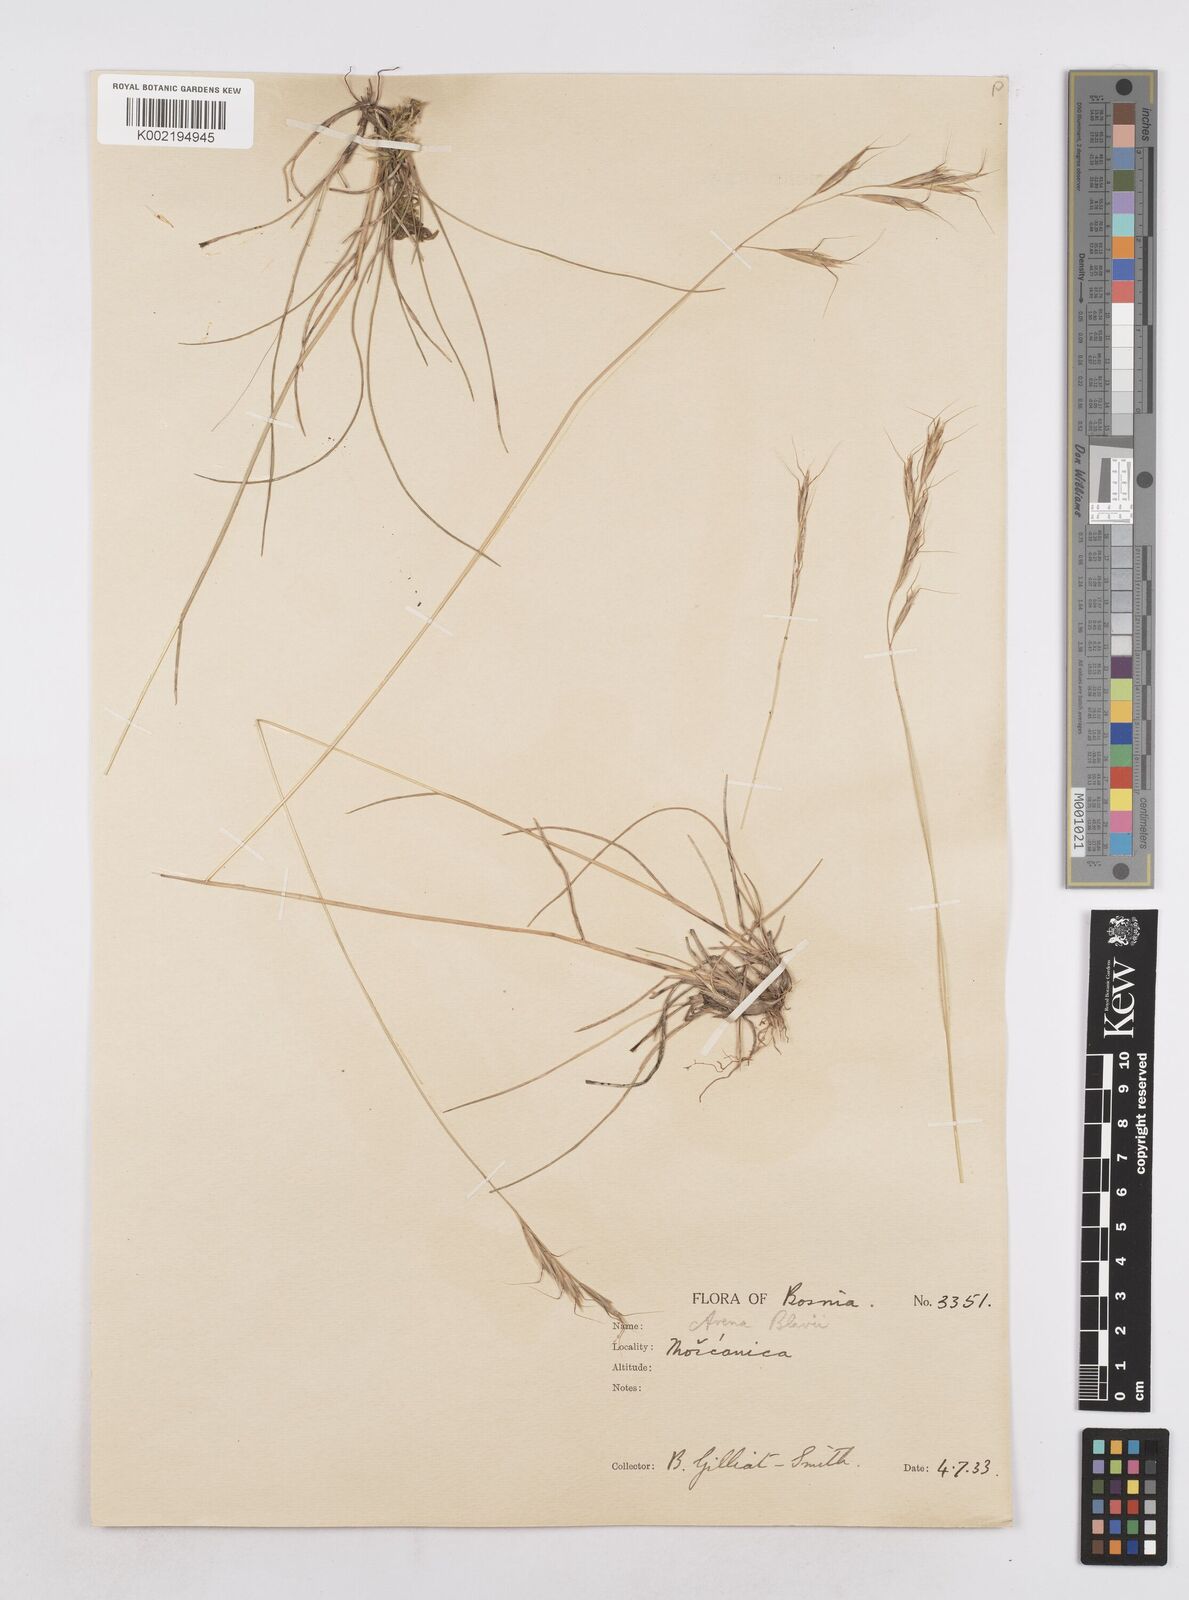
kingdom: Plantae
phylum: Tracheophyta
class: Liliopsida
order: Poales
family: Poaceae
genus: Helictochloa
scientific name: Helictochloa blaui
